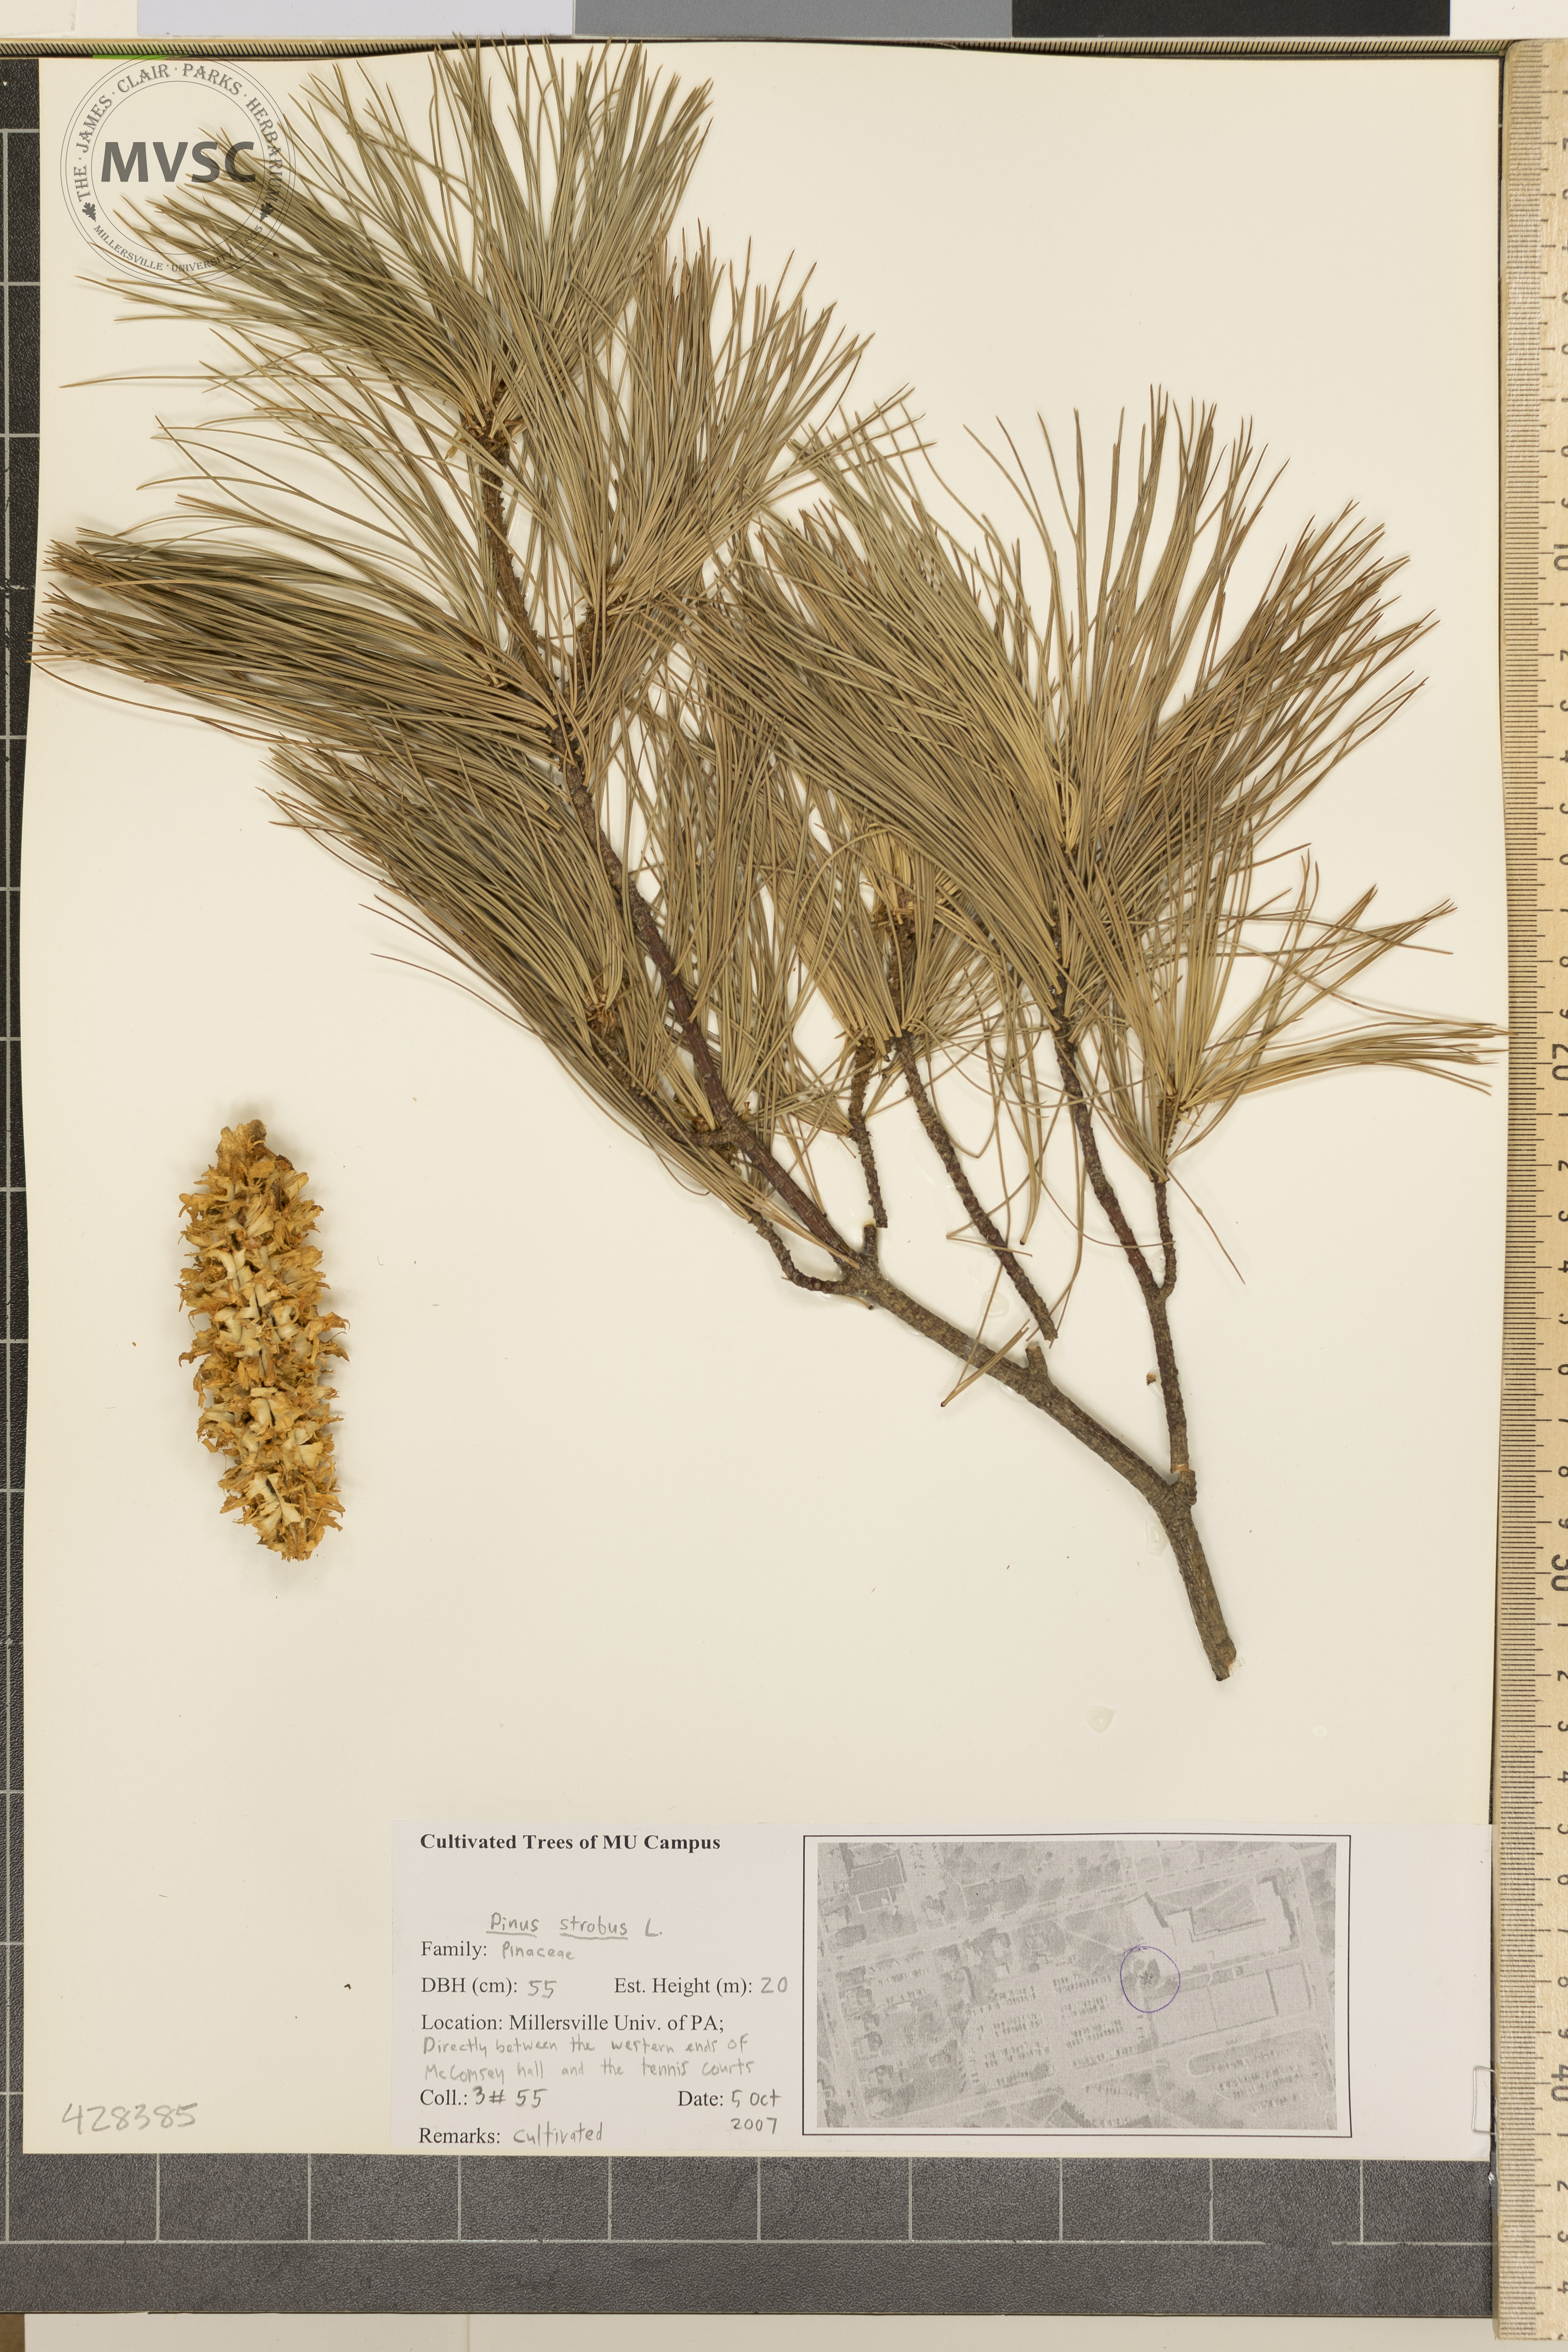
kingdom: Plantae
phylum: Tracheophyta
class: Pinopsida
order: Pinales
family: Pinaceae
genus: Pinus
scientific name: Pinus strobus
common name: Eastern White Pine
